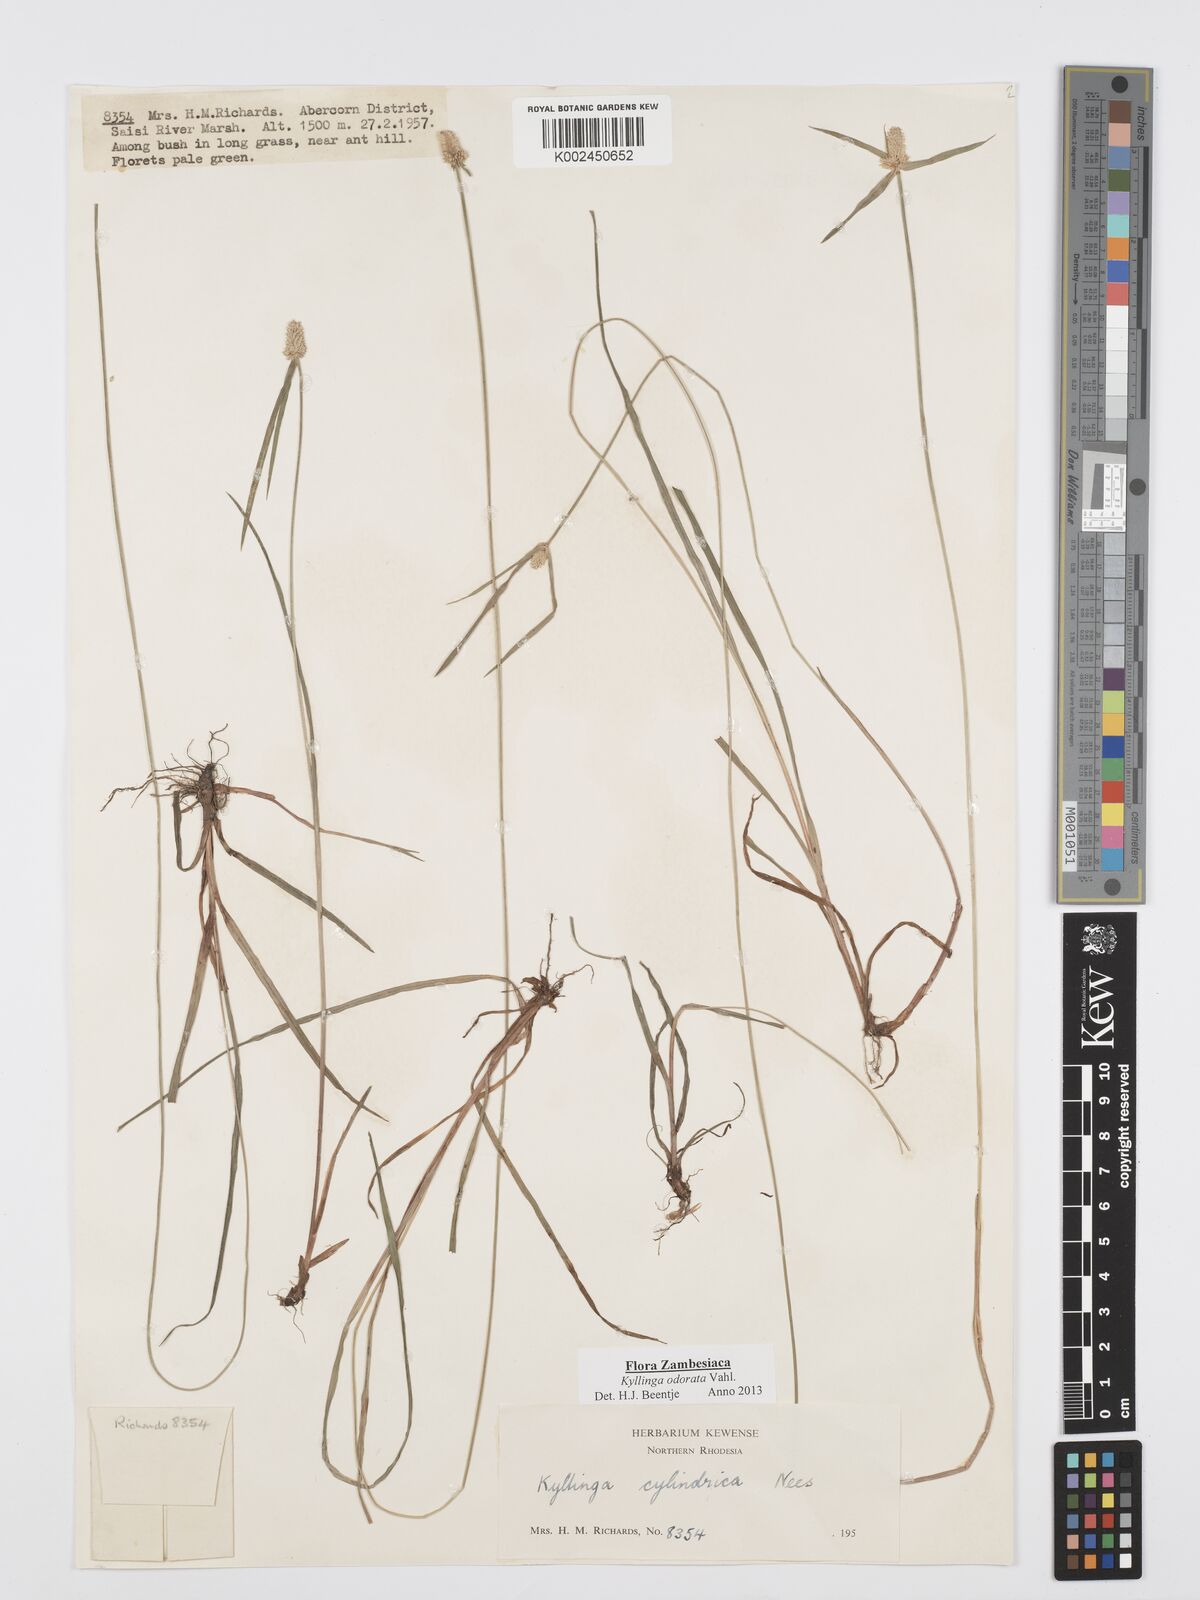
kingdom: Plantae
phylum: Tracheophyta
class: Liliopsida
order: Poales
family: Cyperaceae
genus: Cyperus
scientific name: Cyperus
